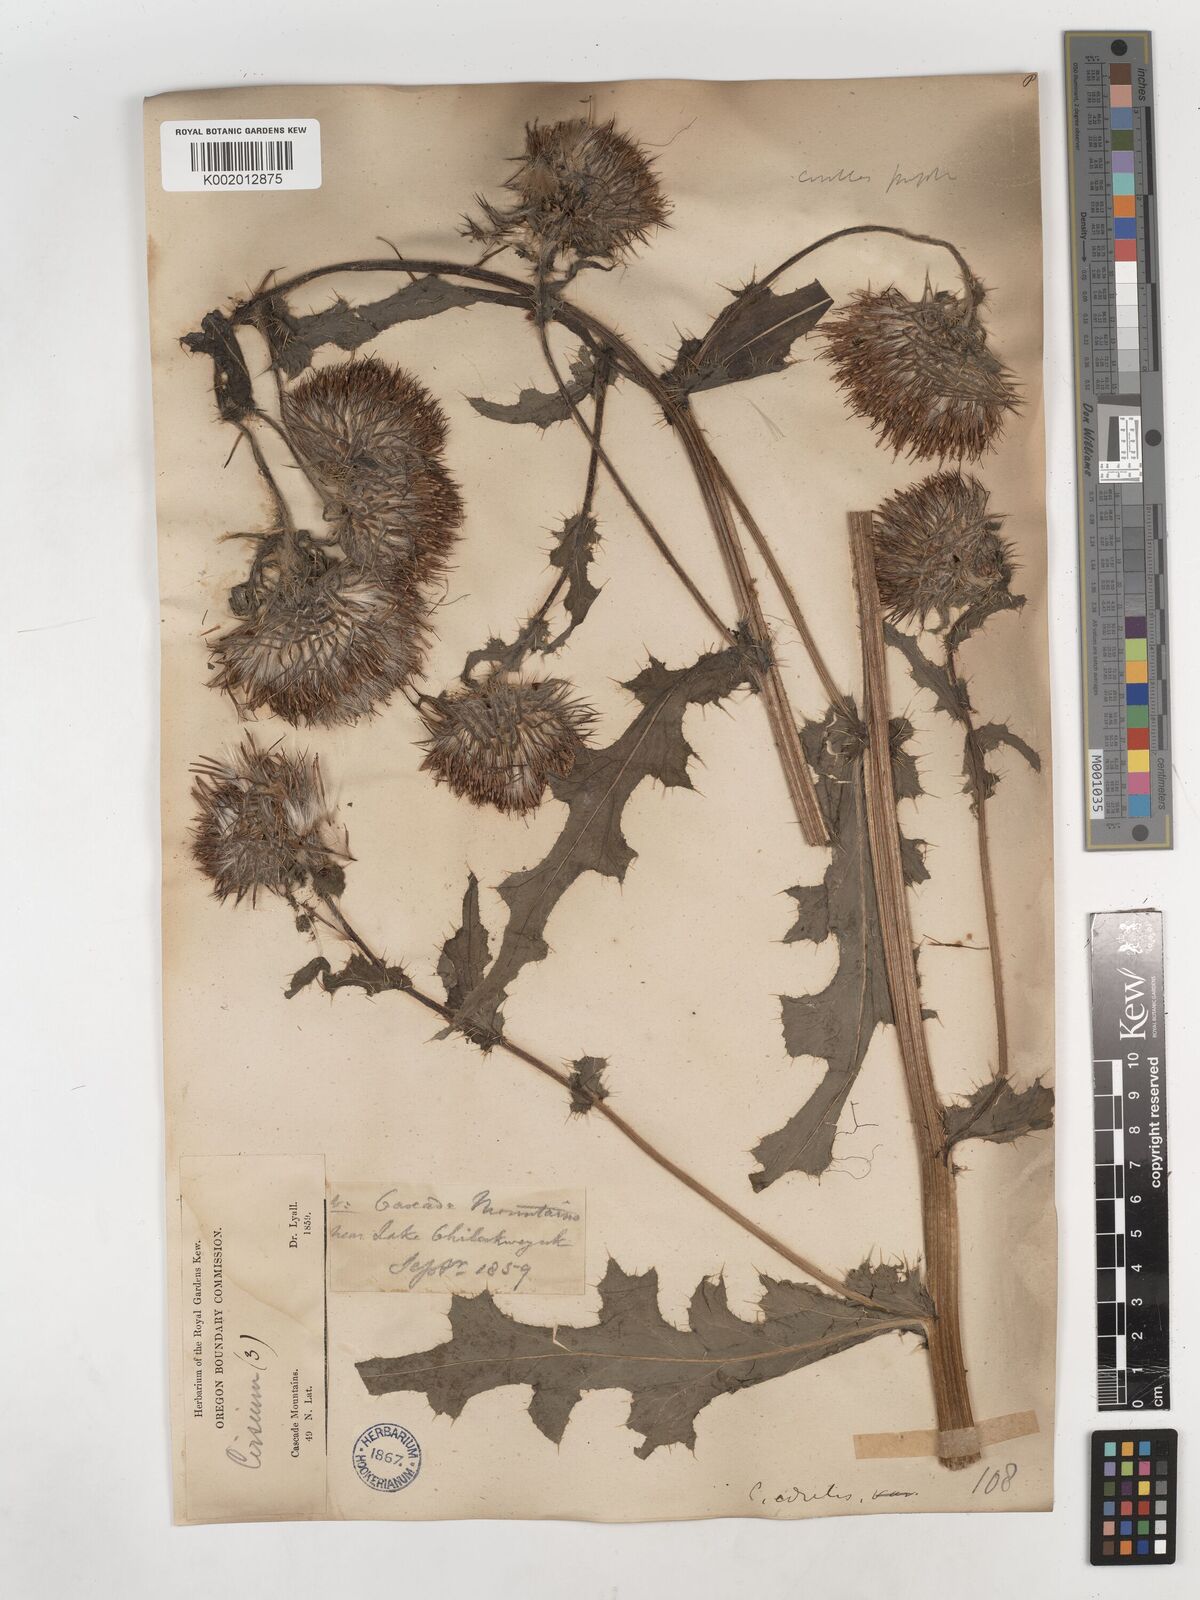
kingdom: Plantae
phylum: Tracheophyta
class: Magnoliopsida
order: Asterales
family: Asteraceae
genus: Cirsium
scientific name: Cirsium edule
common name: Indian thistle
